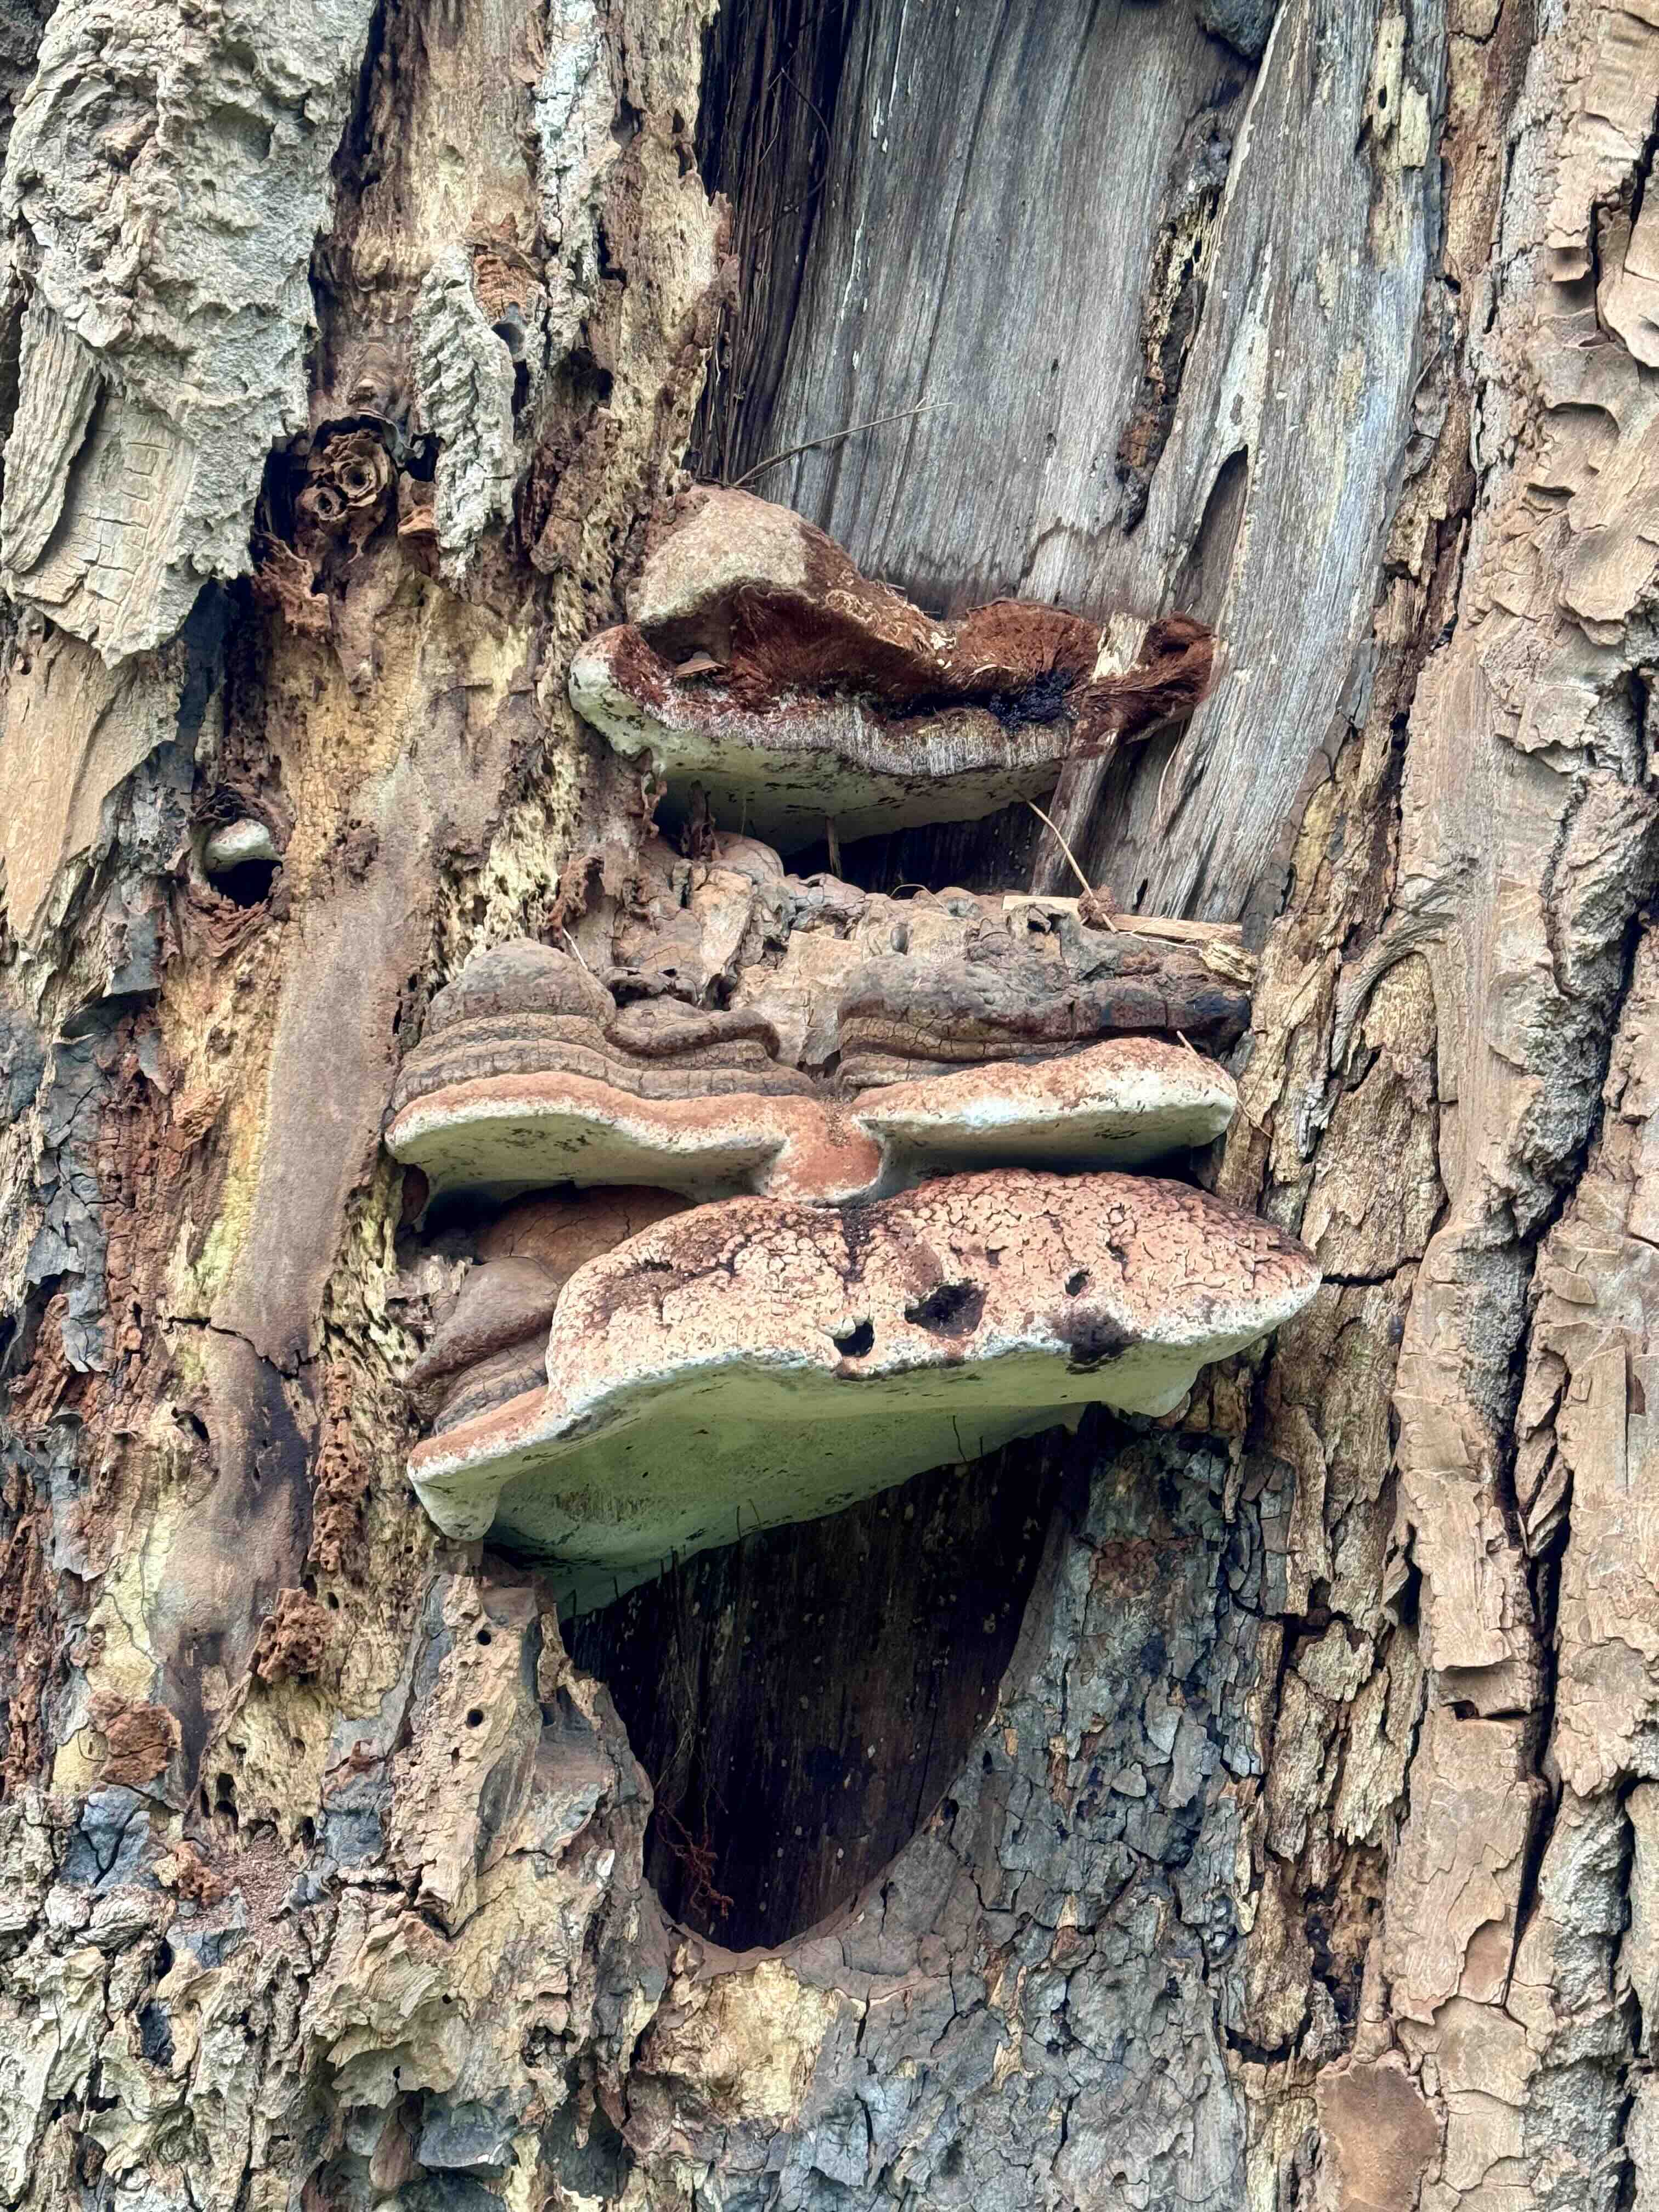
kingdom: Fungi
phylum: Basidiomycota
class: Agaricomycetes
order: Polyporales
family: Polyporaceae
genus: Ganoderma
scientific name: Ganoderma adspersum
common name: grov lakporesvamp
